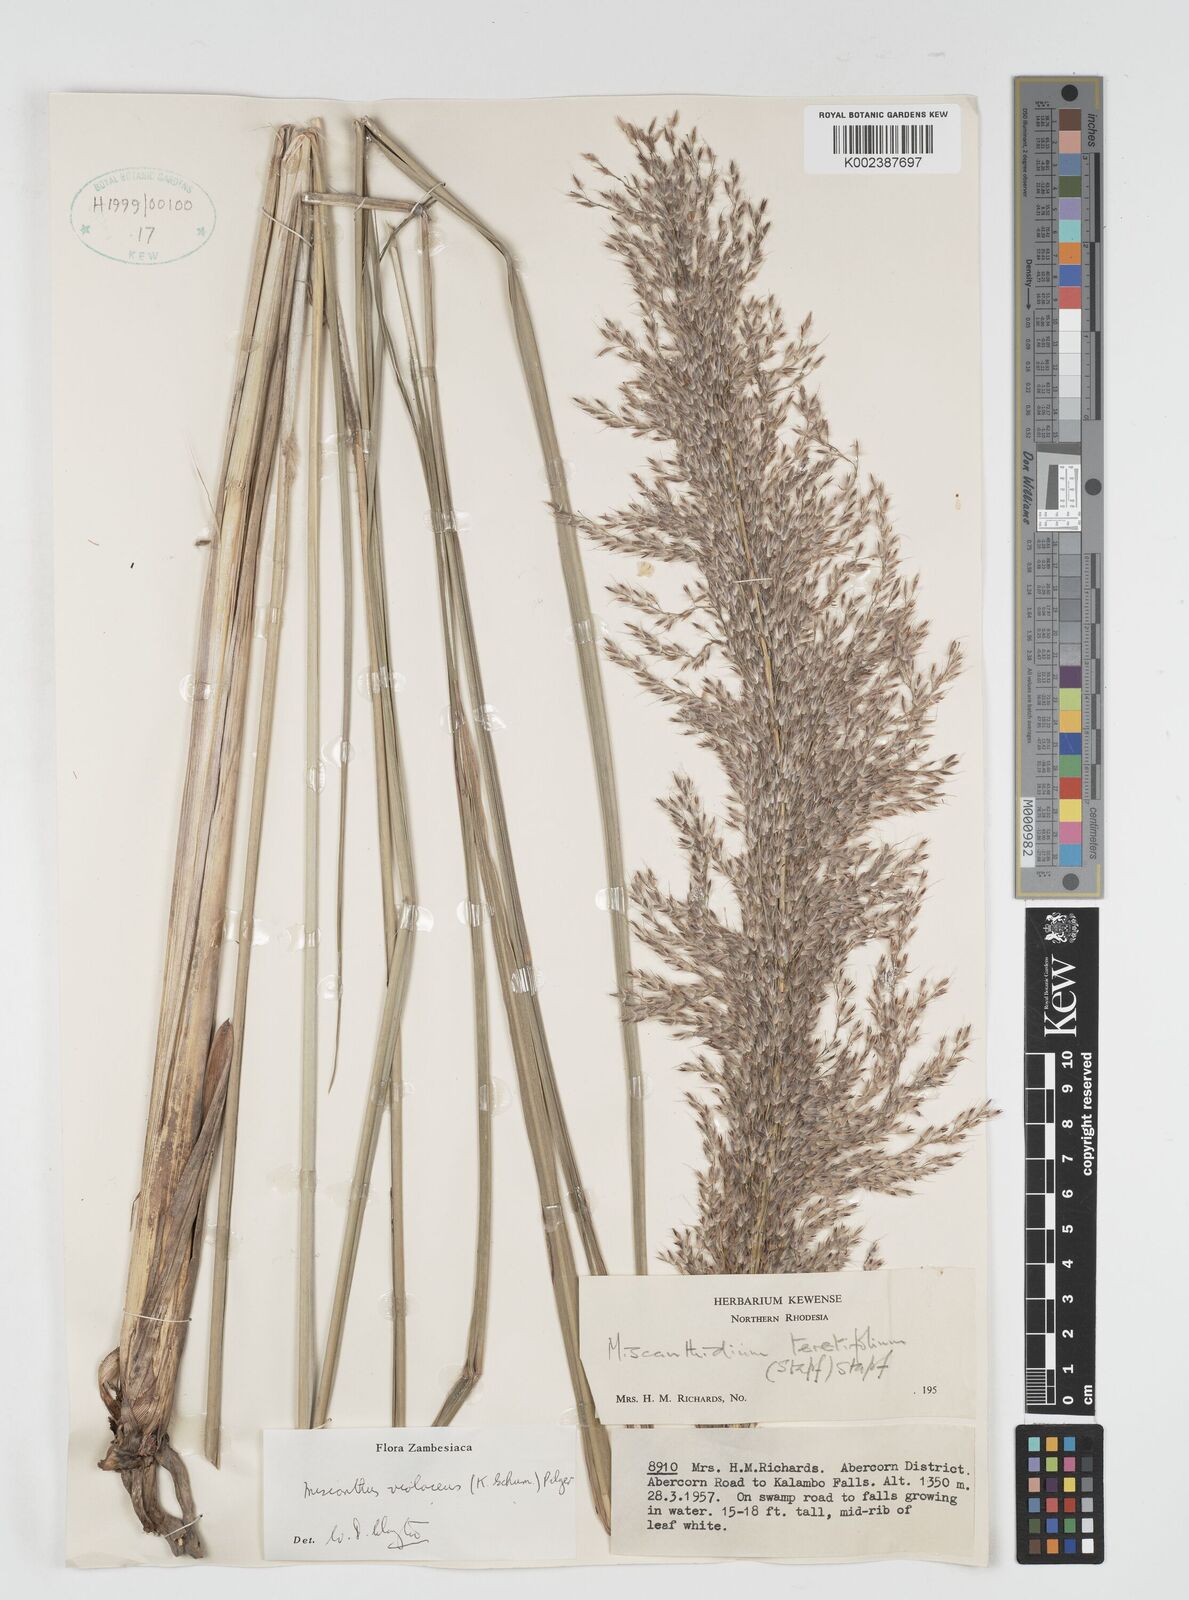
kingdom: Plantae
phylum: Tracheophyta
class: Liliopsida
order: Poales
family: Poaceae
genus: Miscanthidium
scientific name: Miscanthidium violaceum
